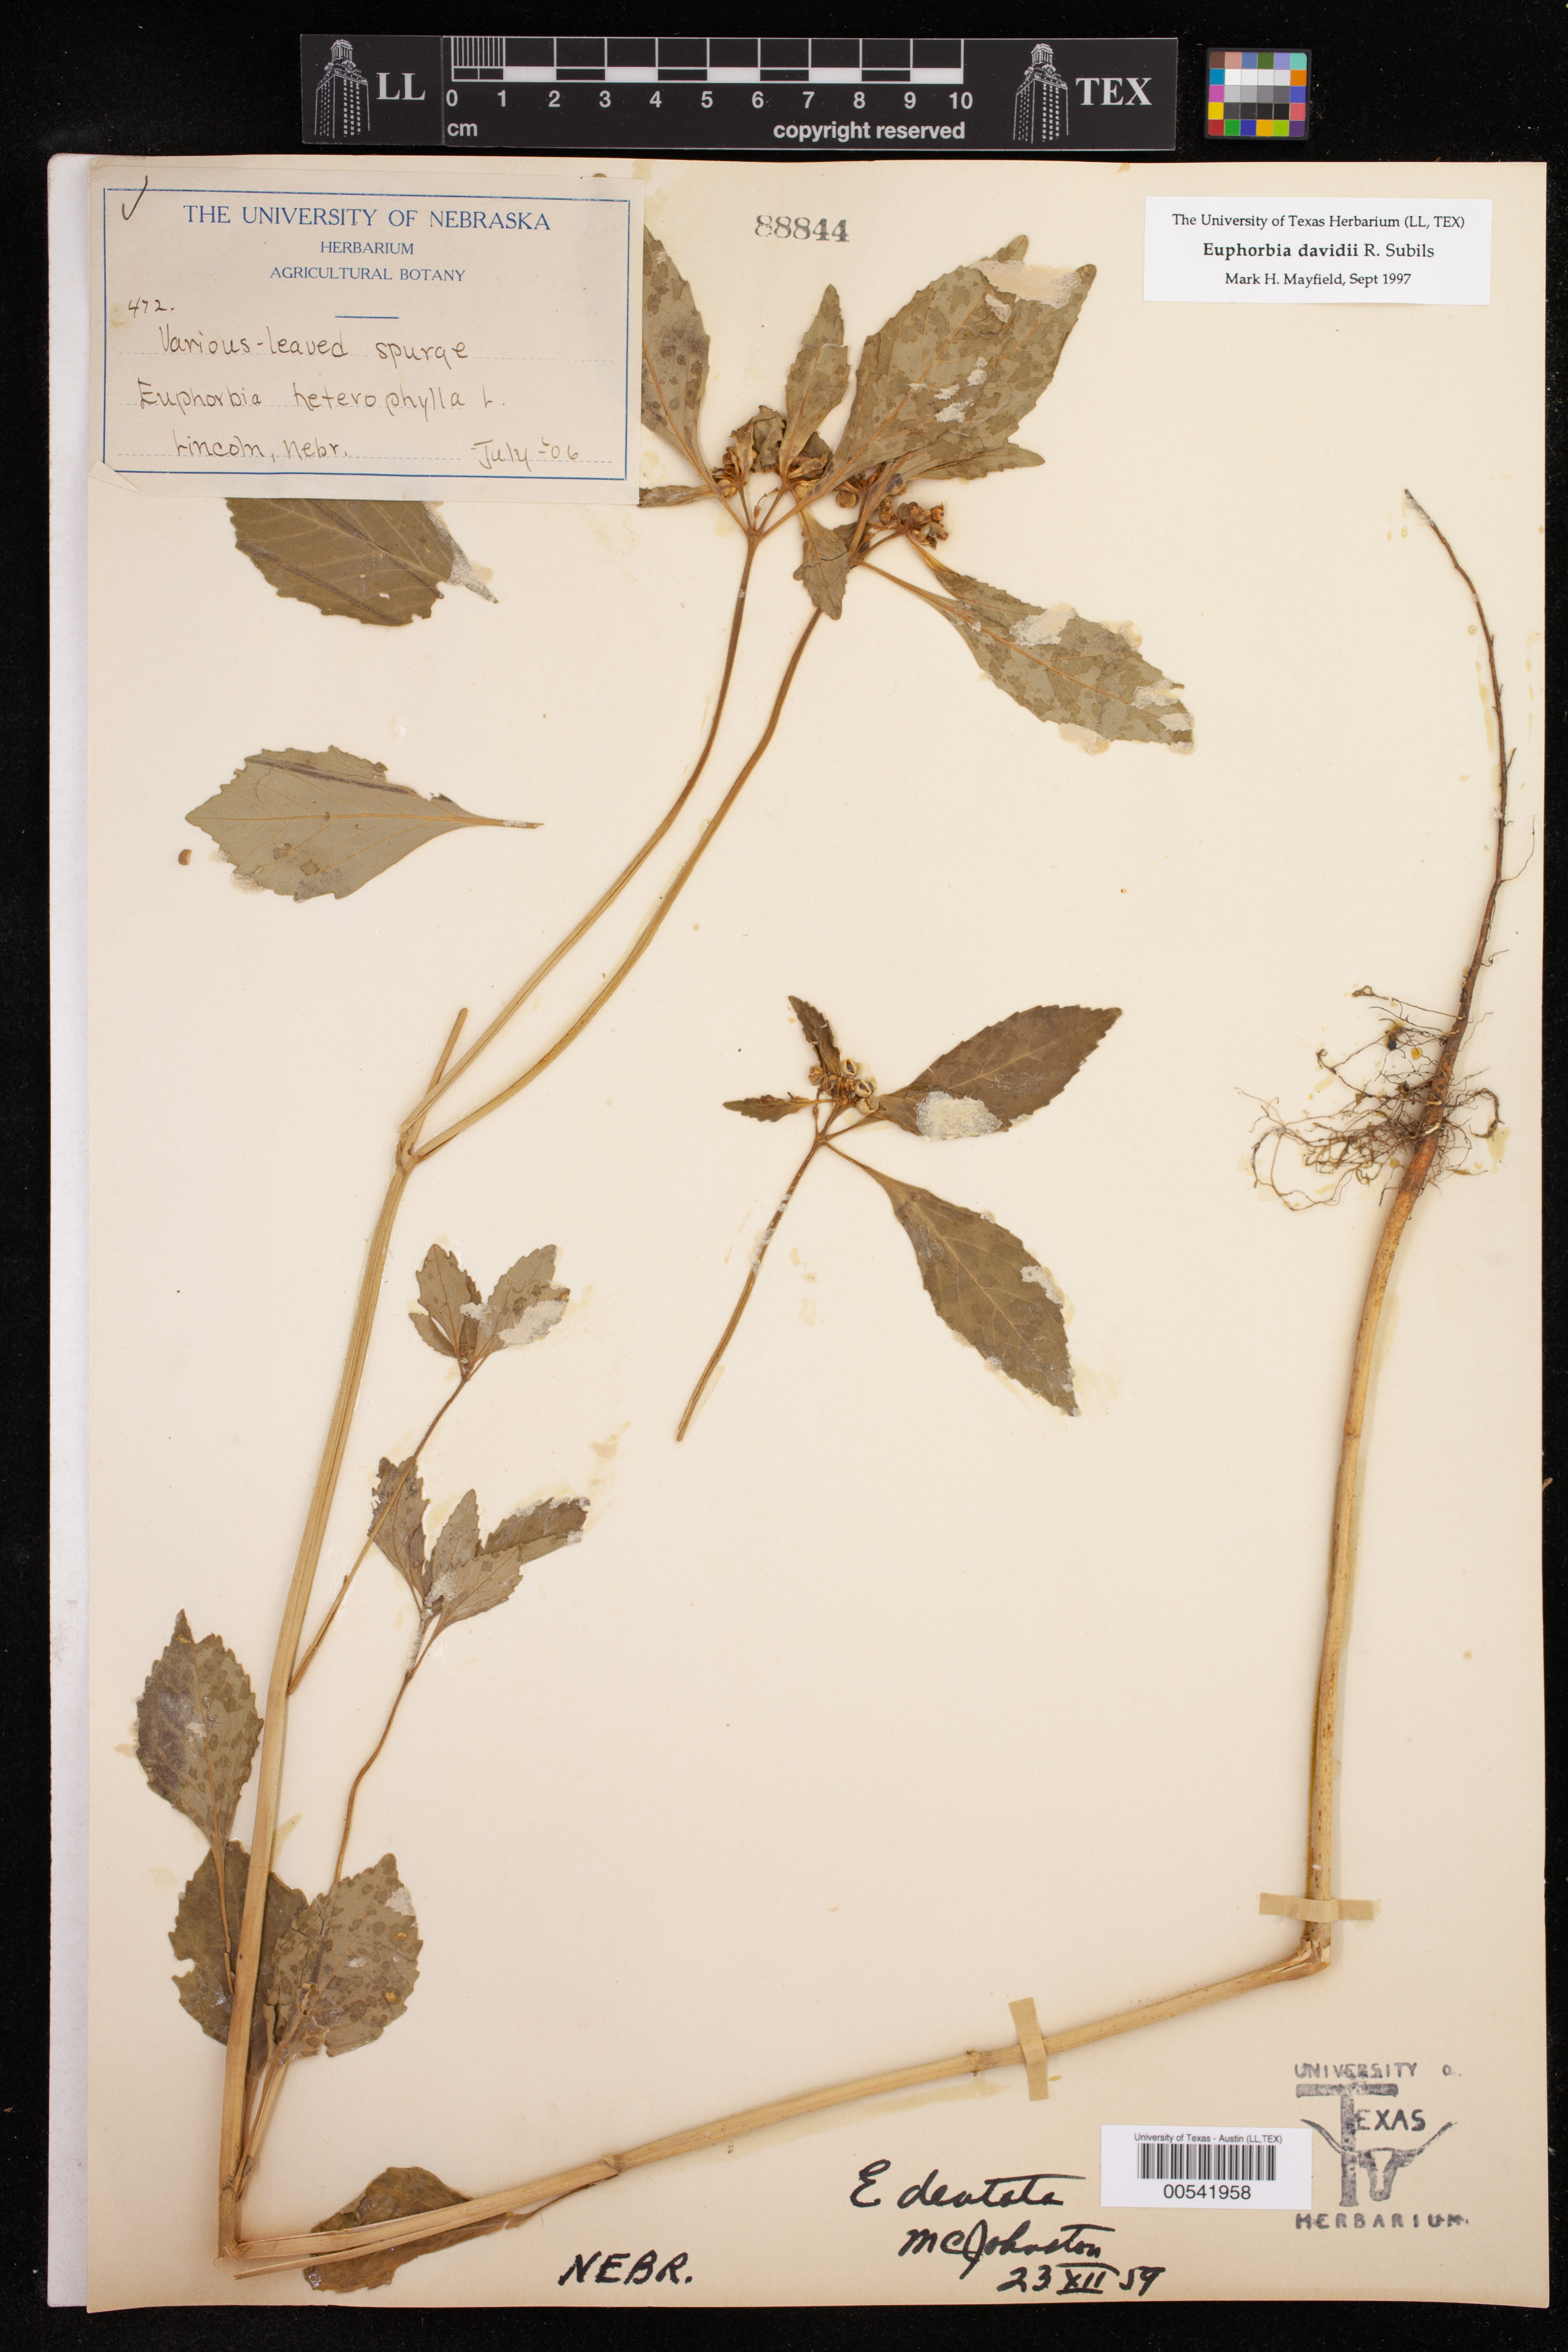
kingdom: Plantae
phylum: Tracheophyta
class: Magnoliopsida
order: Malpighiales
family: Euphorbiaceae
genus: Euphorbia
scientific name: Euphorbia davidii
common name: David's spurge
